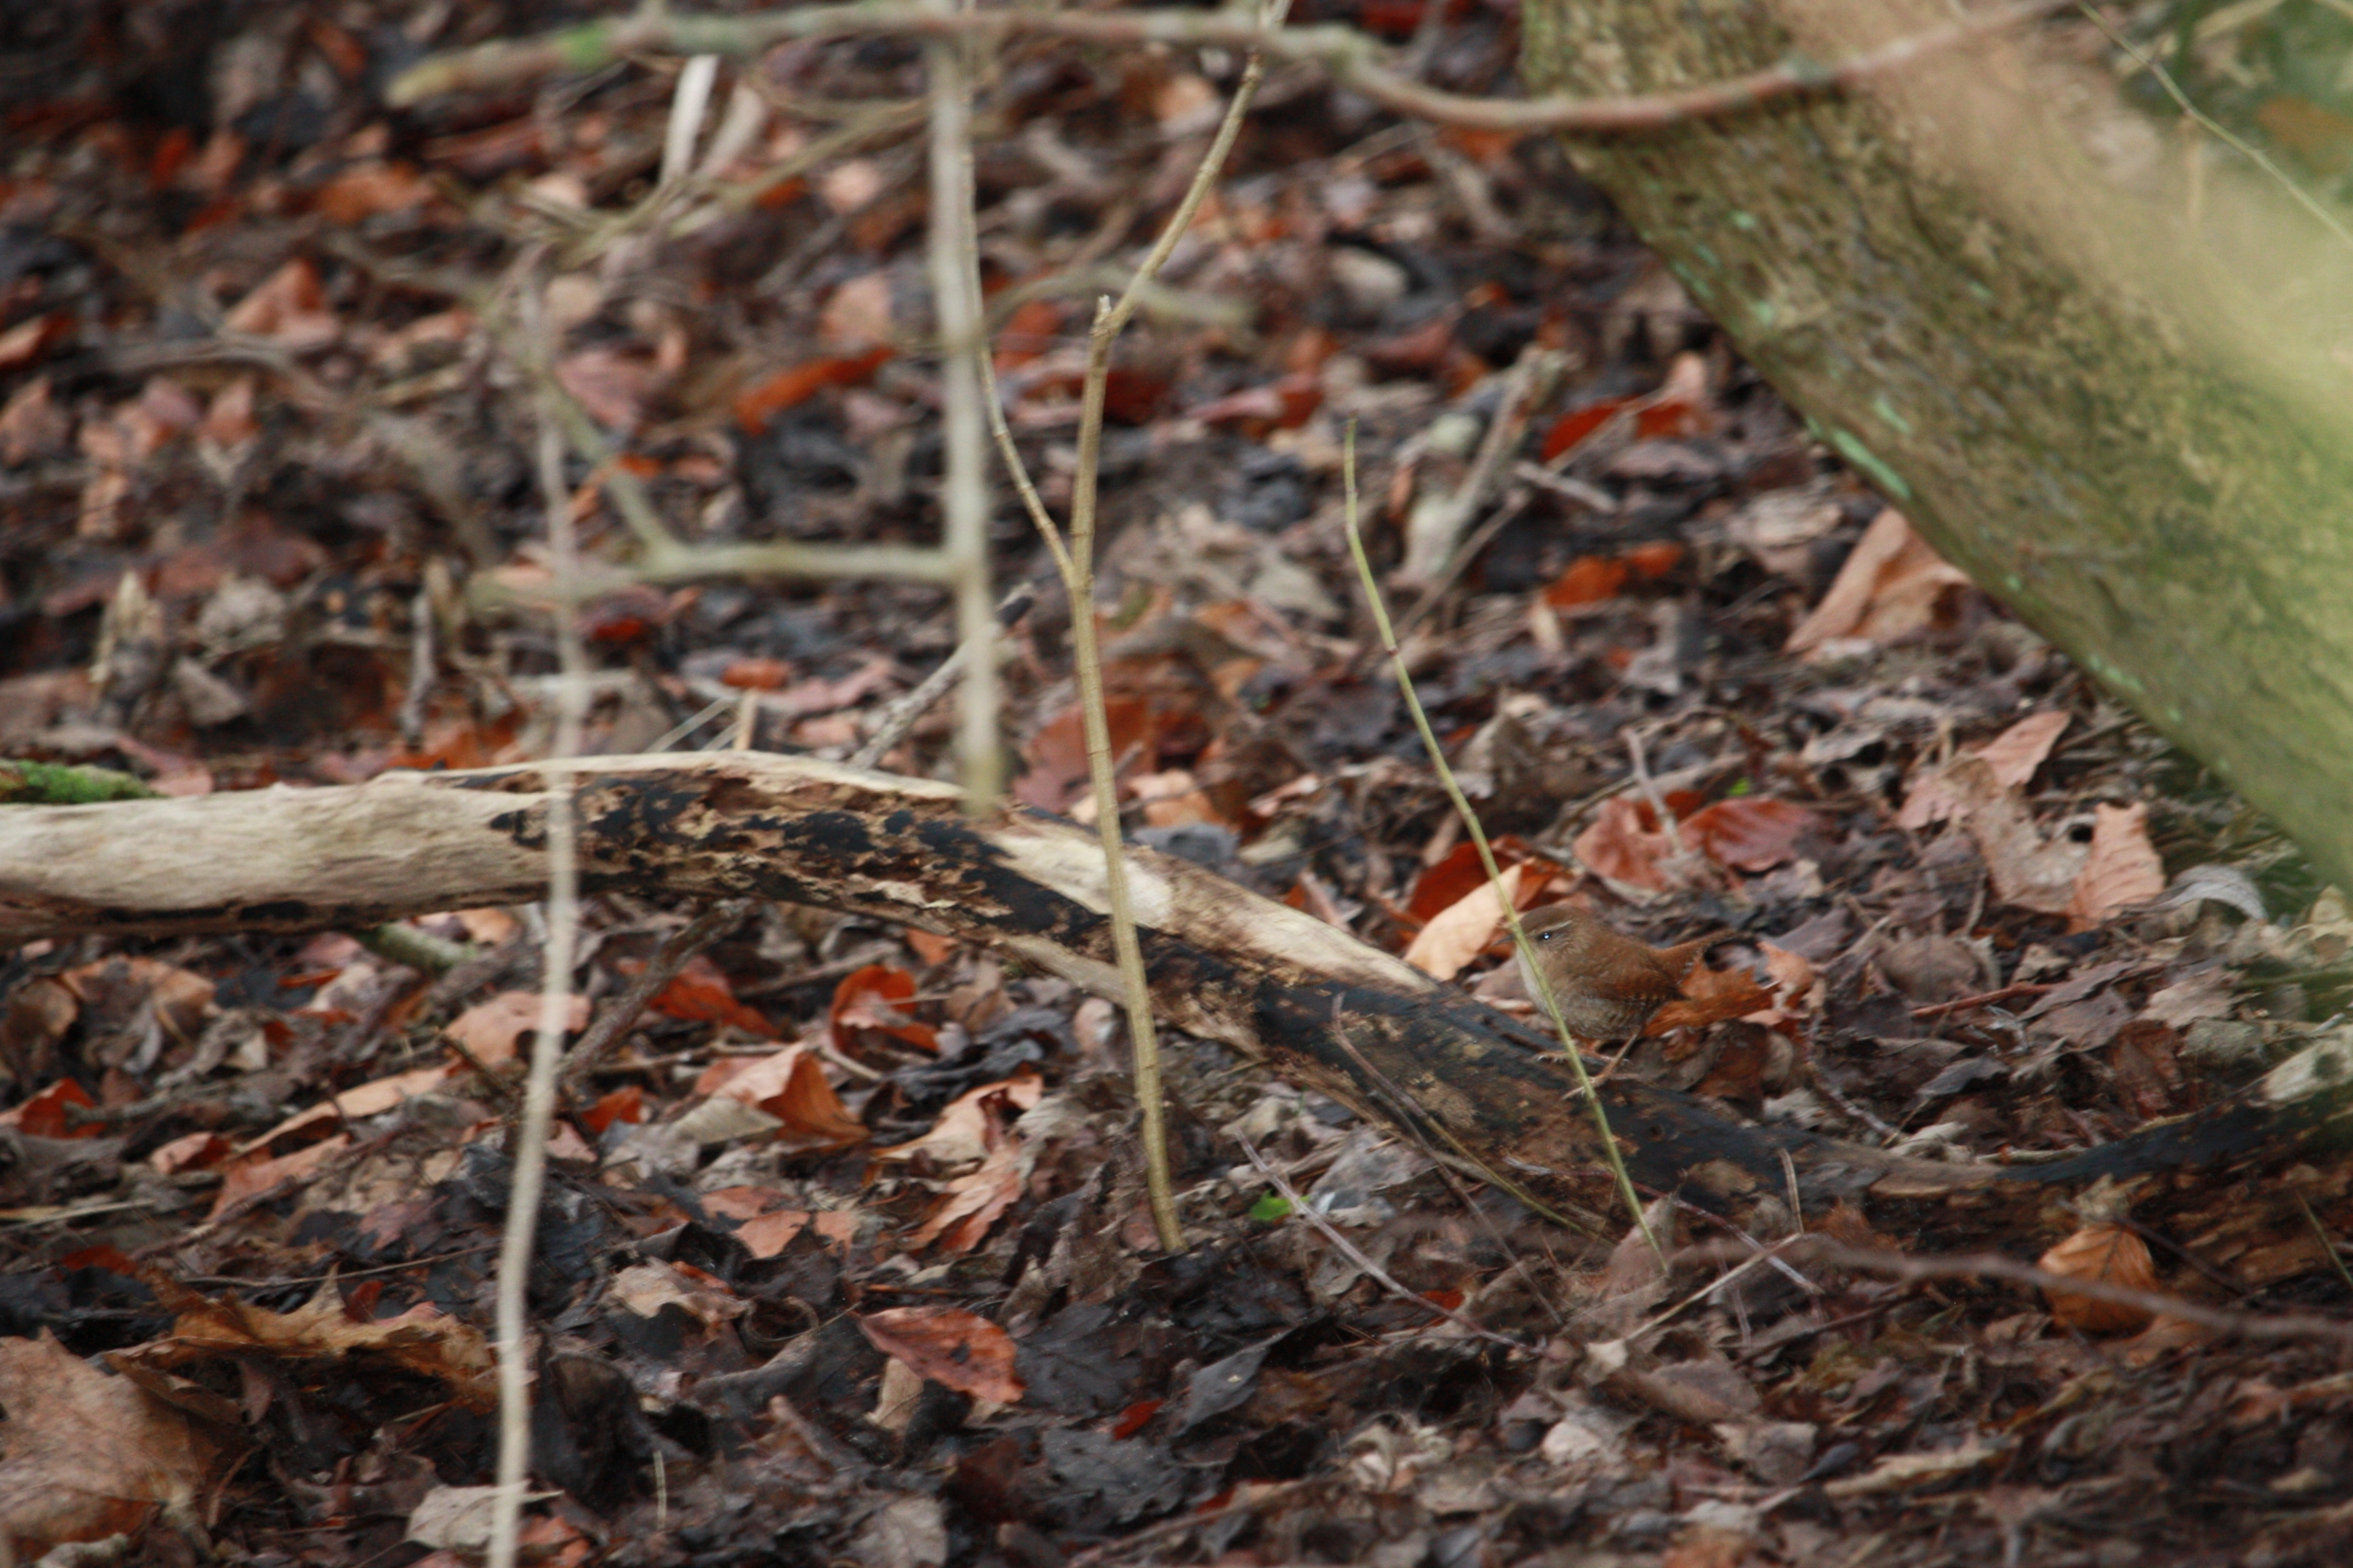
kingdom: Animalia
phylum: Chordata
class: Aves
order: Passeriformes
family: Troglodytidae
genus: Troglodytes
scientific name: Troglodytes troglodytes
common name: Gærdesmutte
